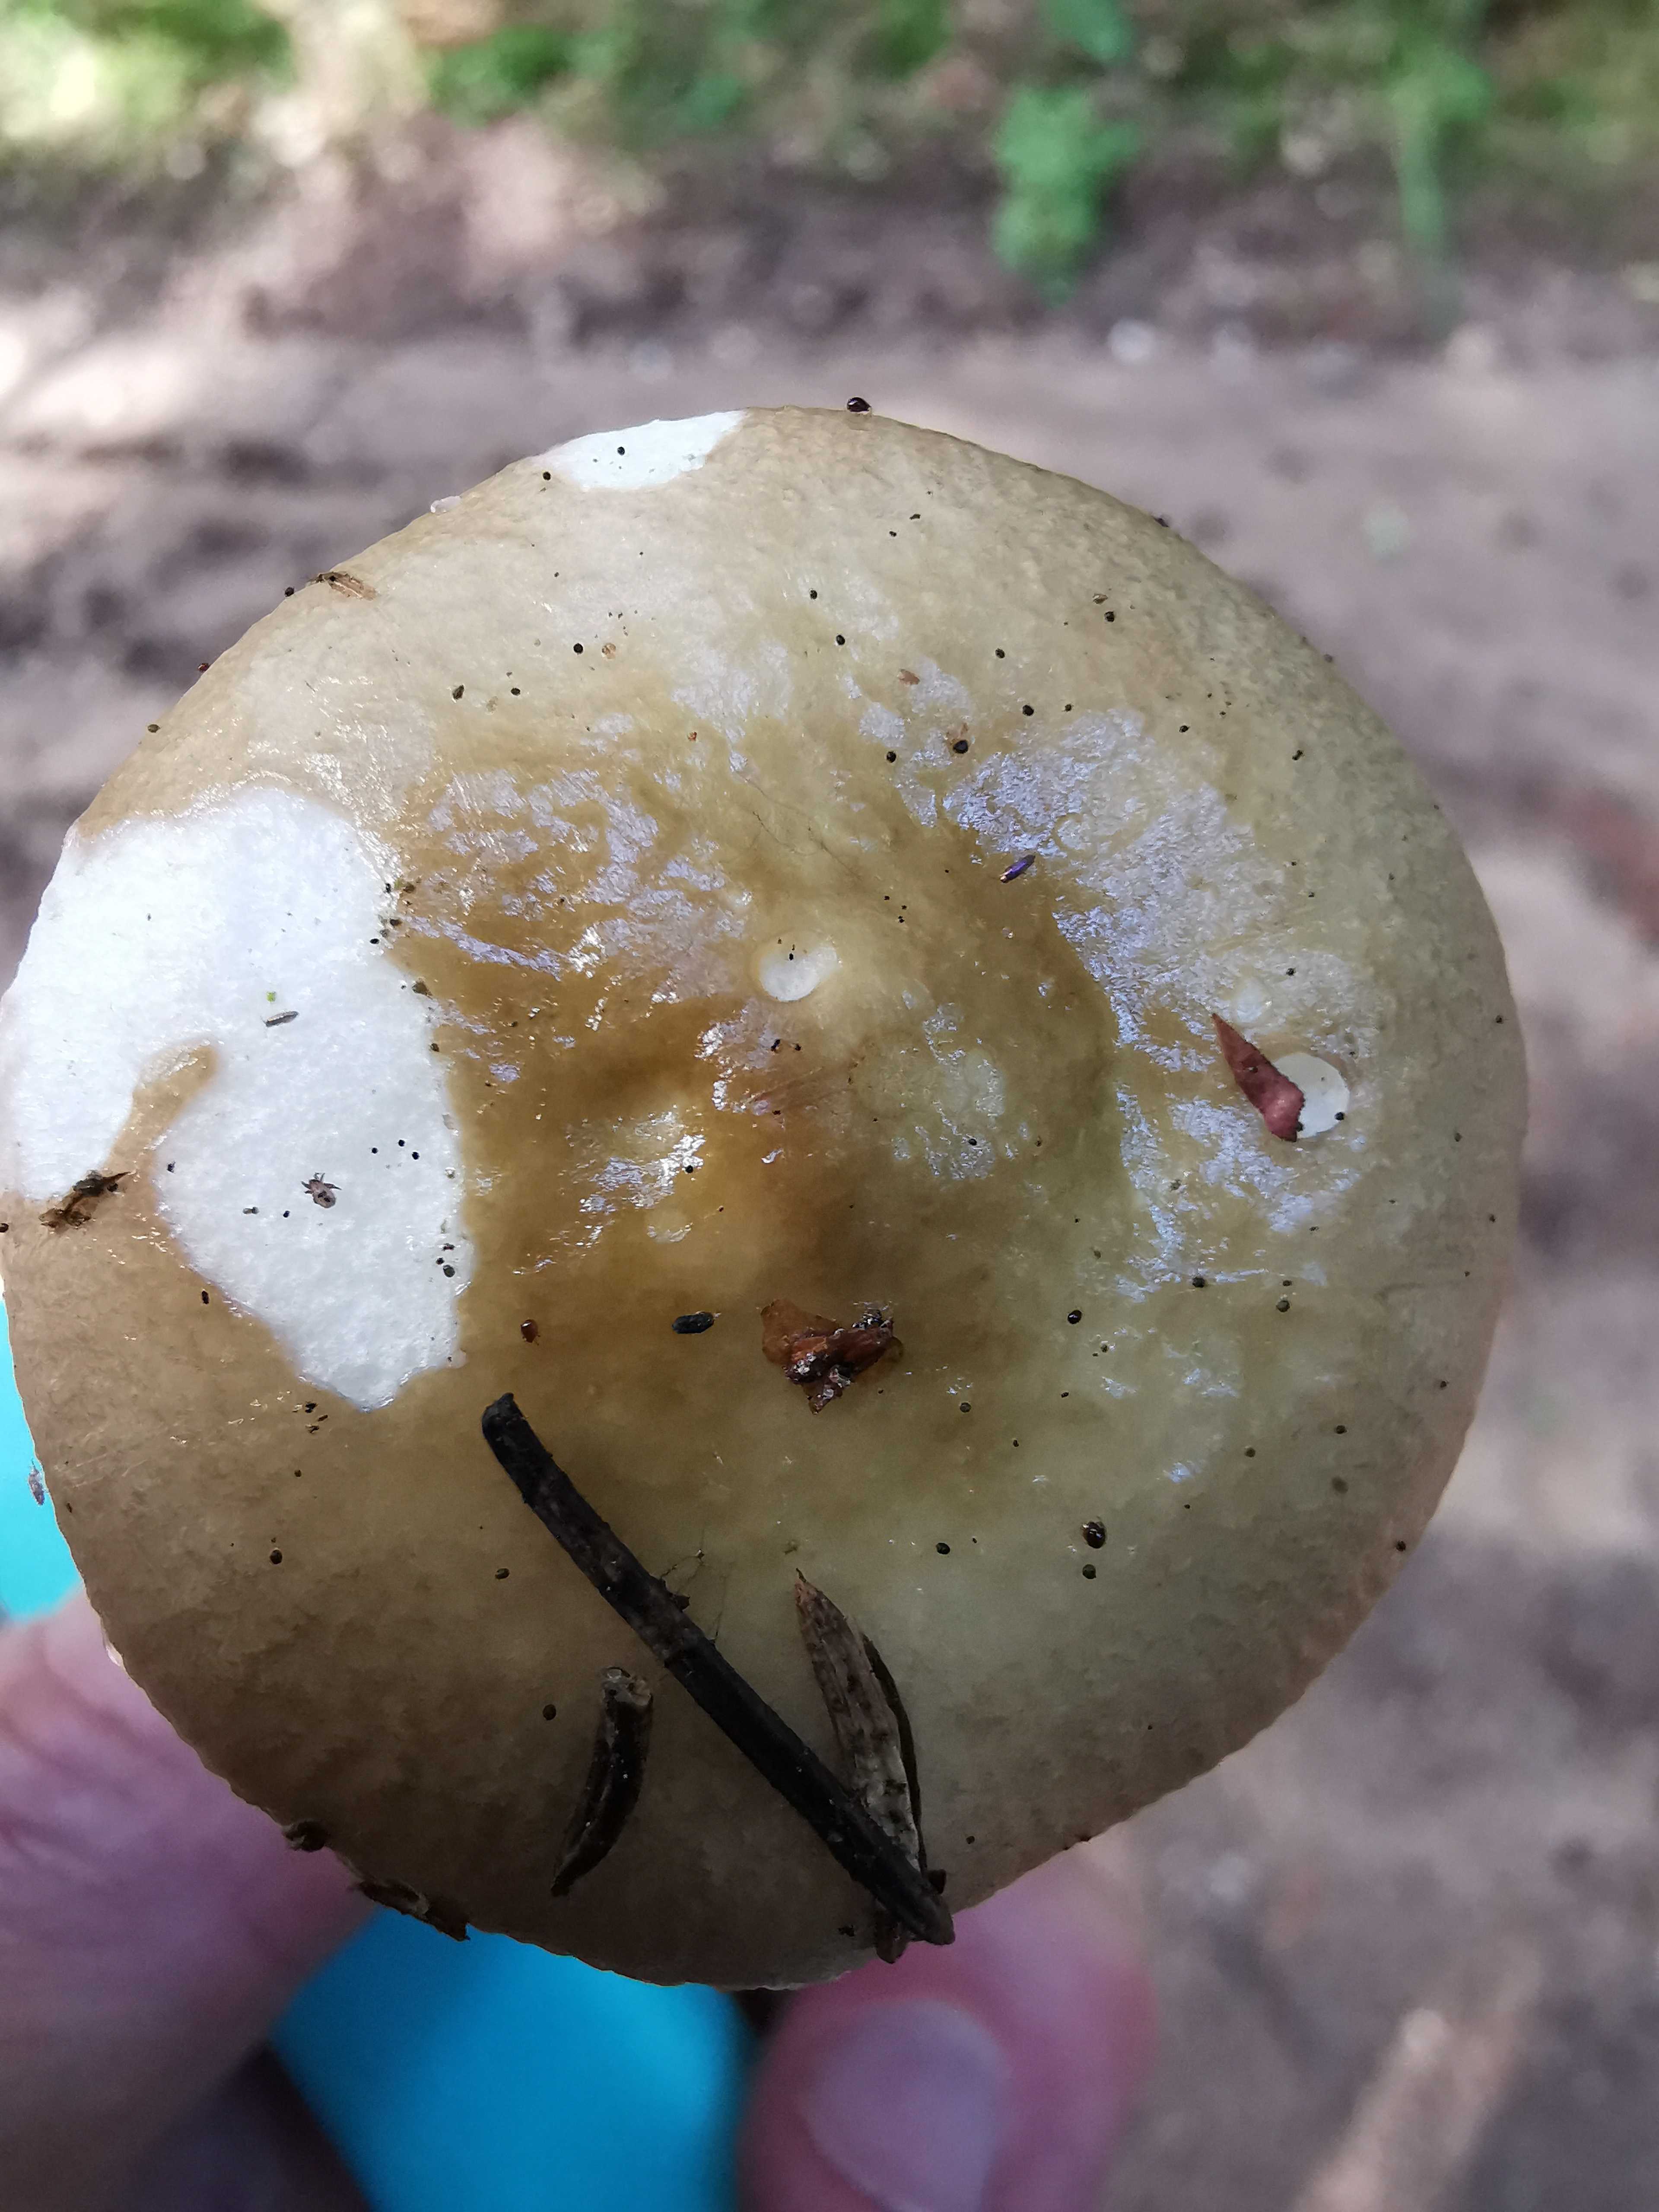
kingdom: Fungi
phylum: Basidiomycota
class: Agaricomycetes
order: Russulales
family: Russulaceae
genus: Russula
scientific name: Russula
